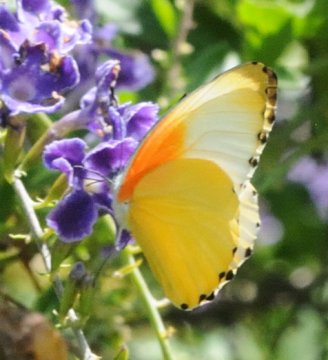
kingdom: Animalia
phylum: Arthropoda
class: Insecta
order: Lepidoptera
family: Pieridae
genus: Mylothris
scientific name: Mylothris agathina
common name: Eastern Dotted Border
